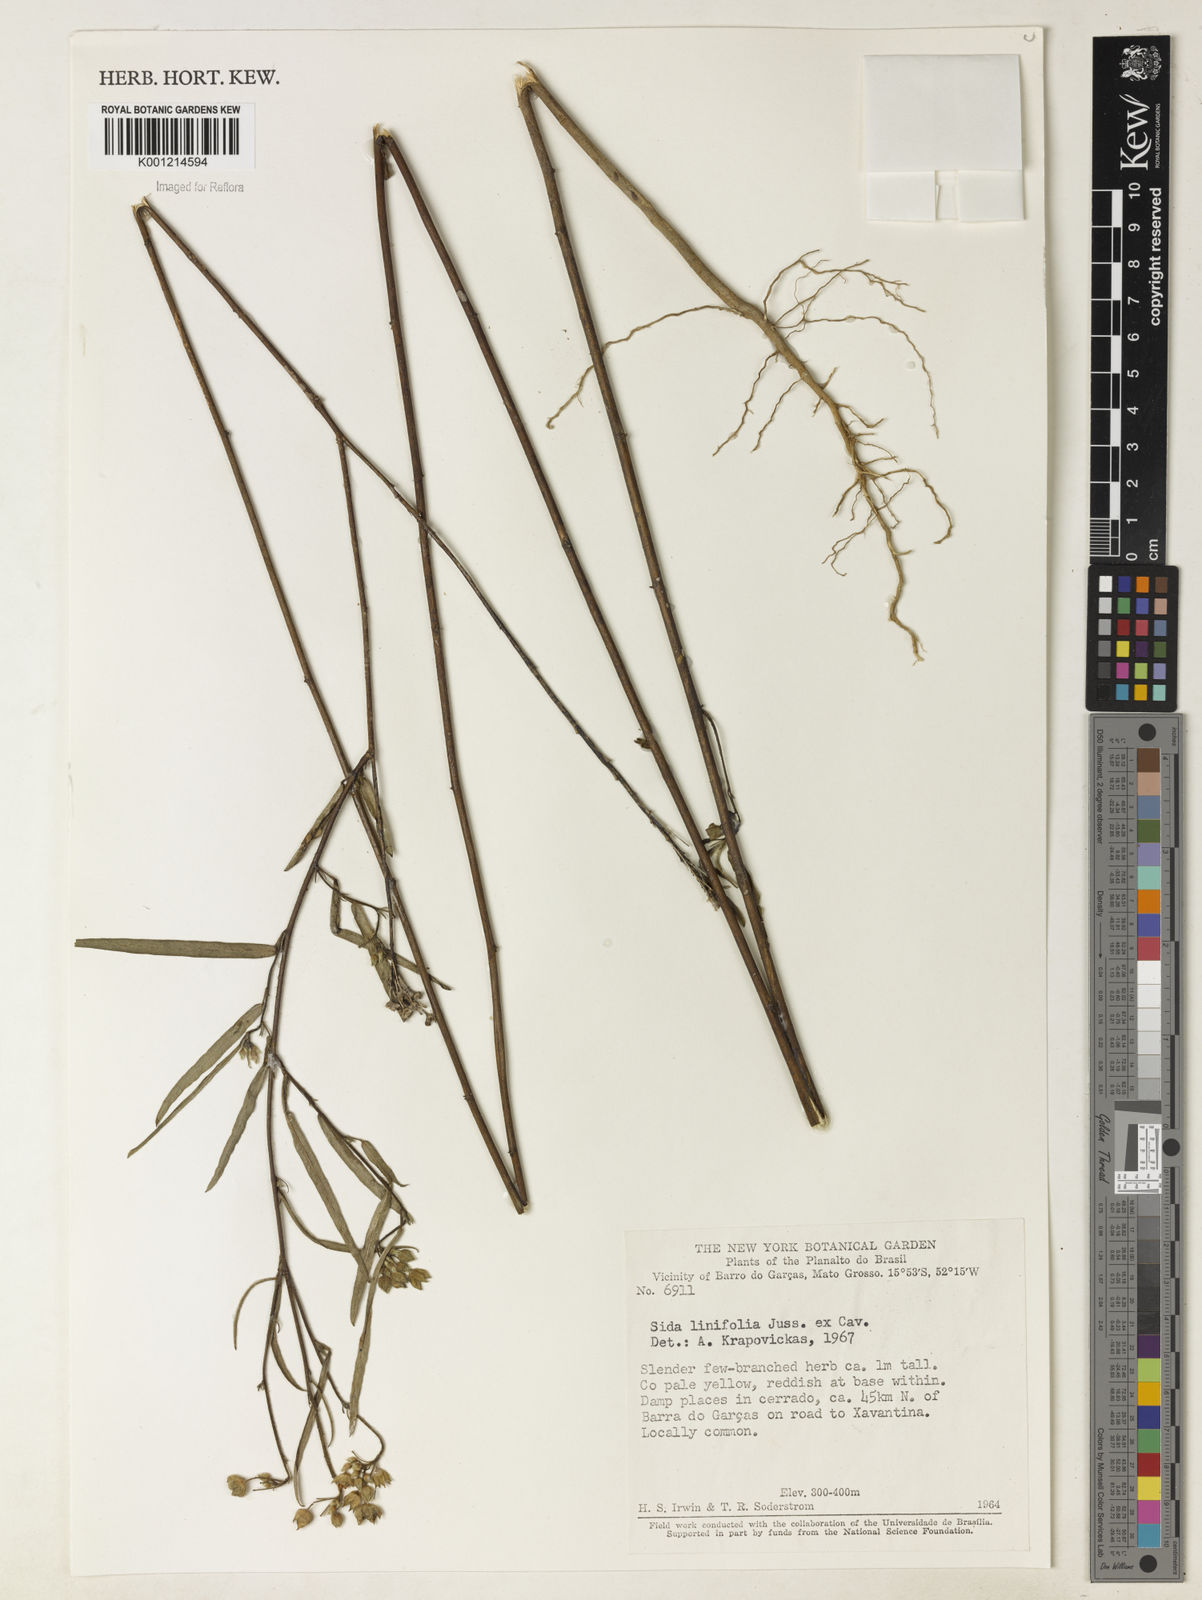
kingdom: Plantae
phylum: Tracheophyta
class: Magnoliopsida
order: Malvales
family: Malvaceae
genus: Sida
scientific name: Sida linifolia
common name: Flaxleaf fanpetals
